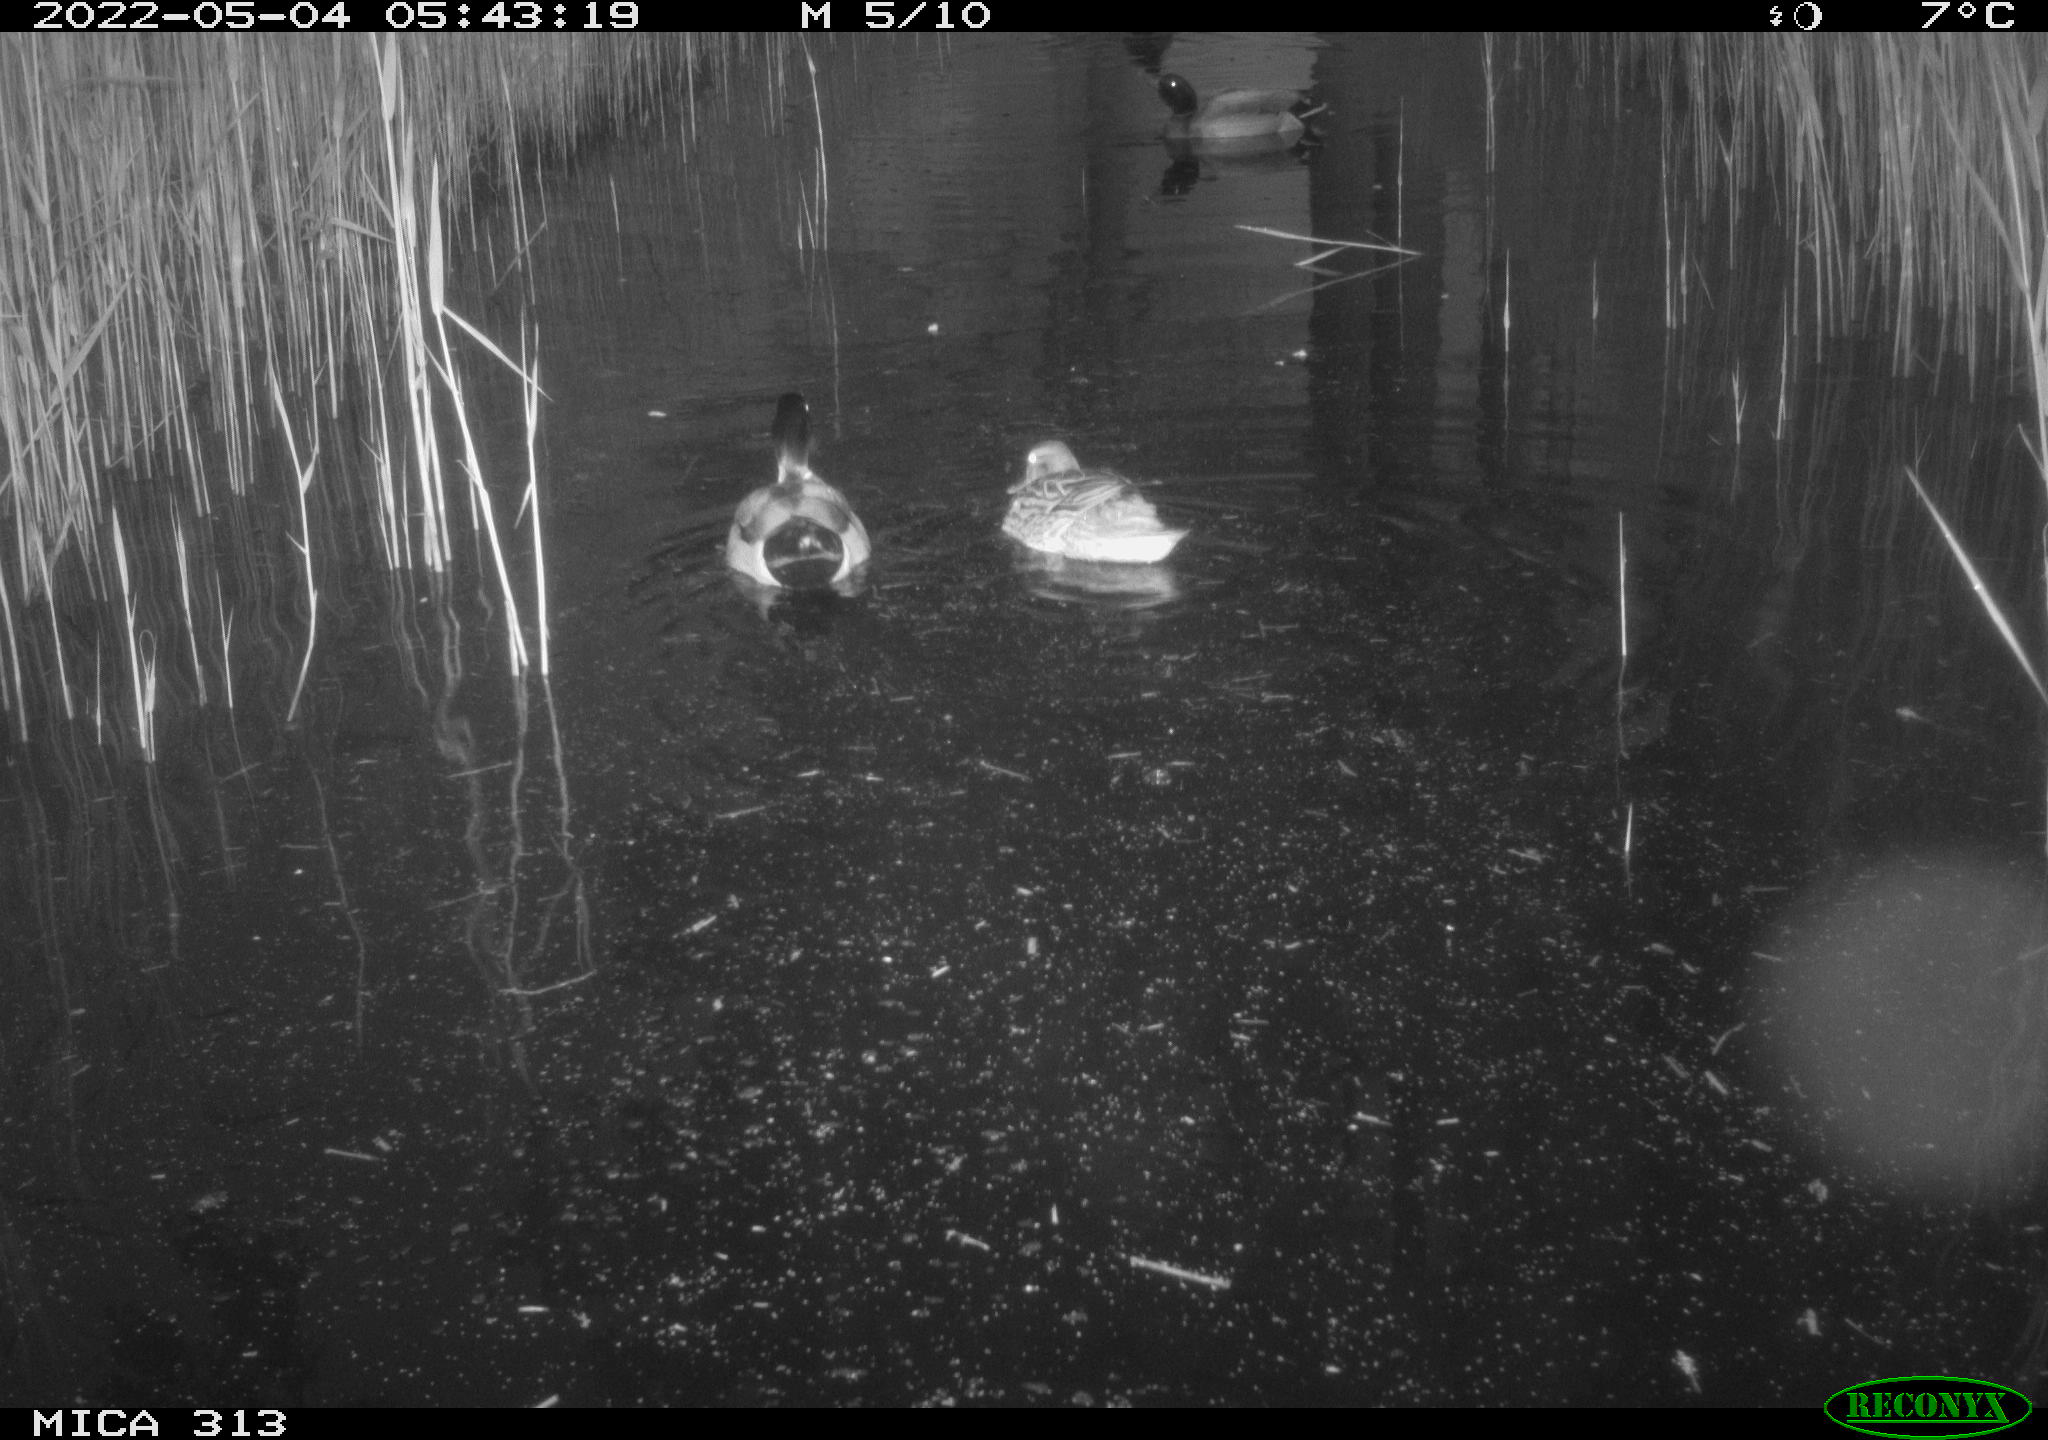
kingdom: Animalia
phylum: Chordata
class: Aves
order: Anseriformes
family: Anatidae
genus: Anas
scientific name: Anas platyrhynchos
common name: Mallard
